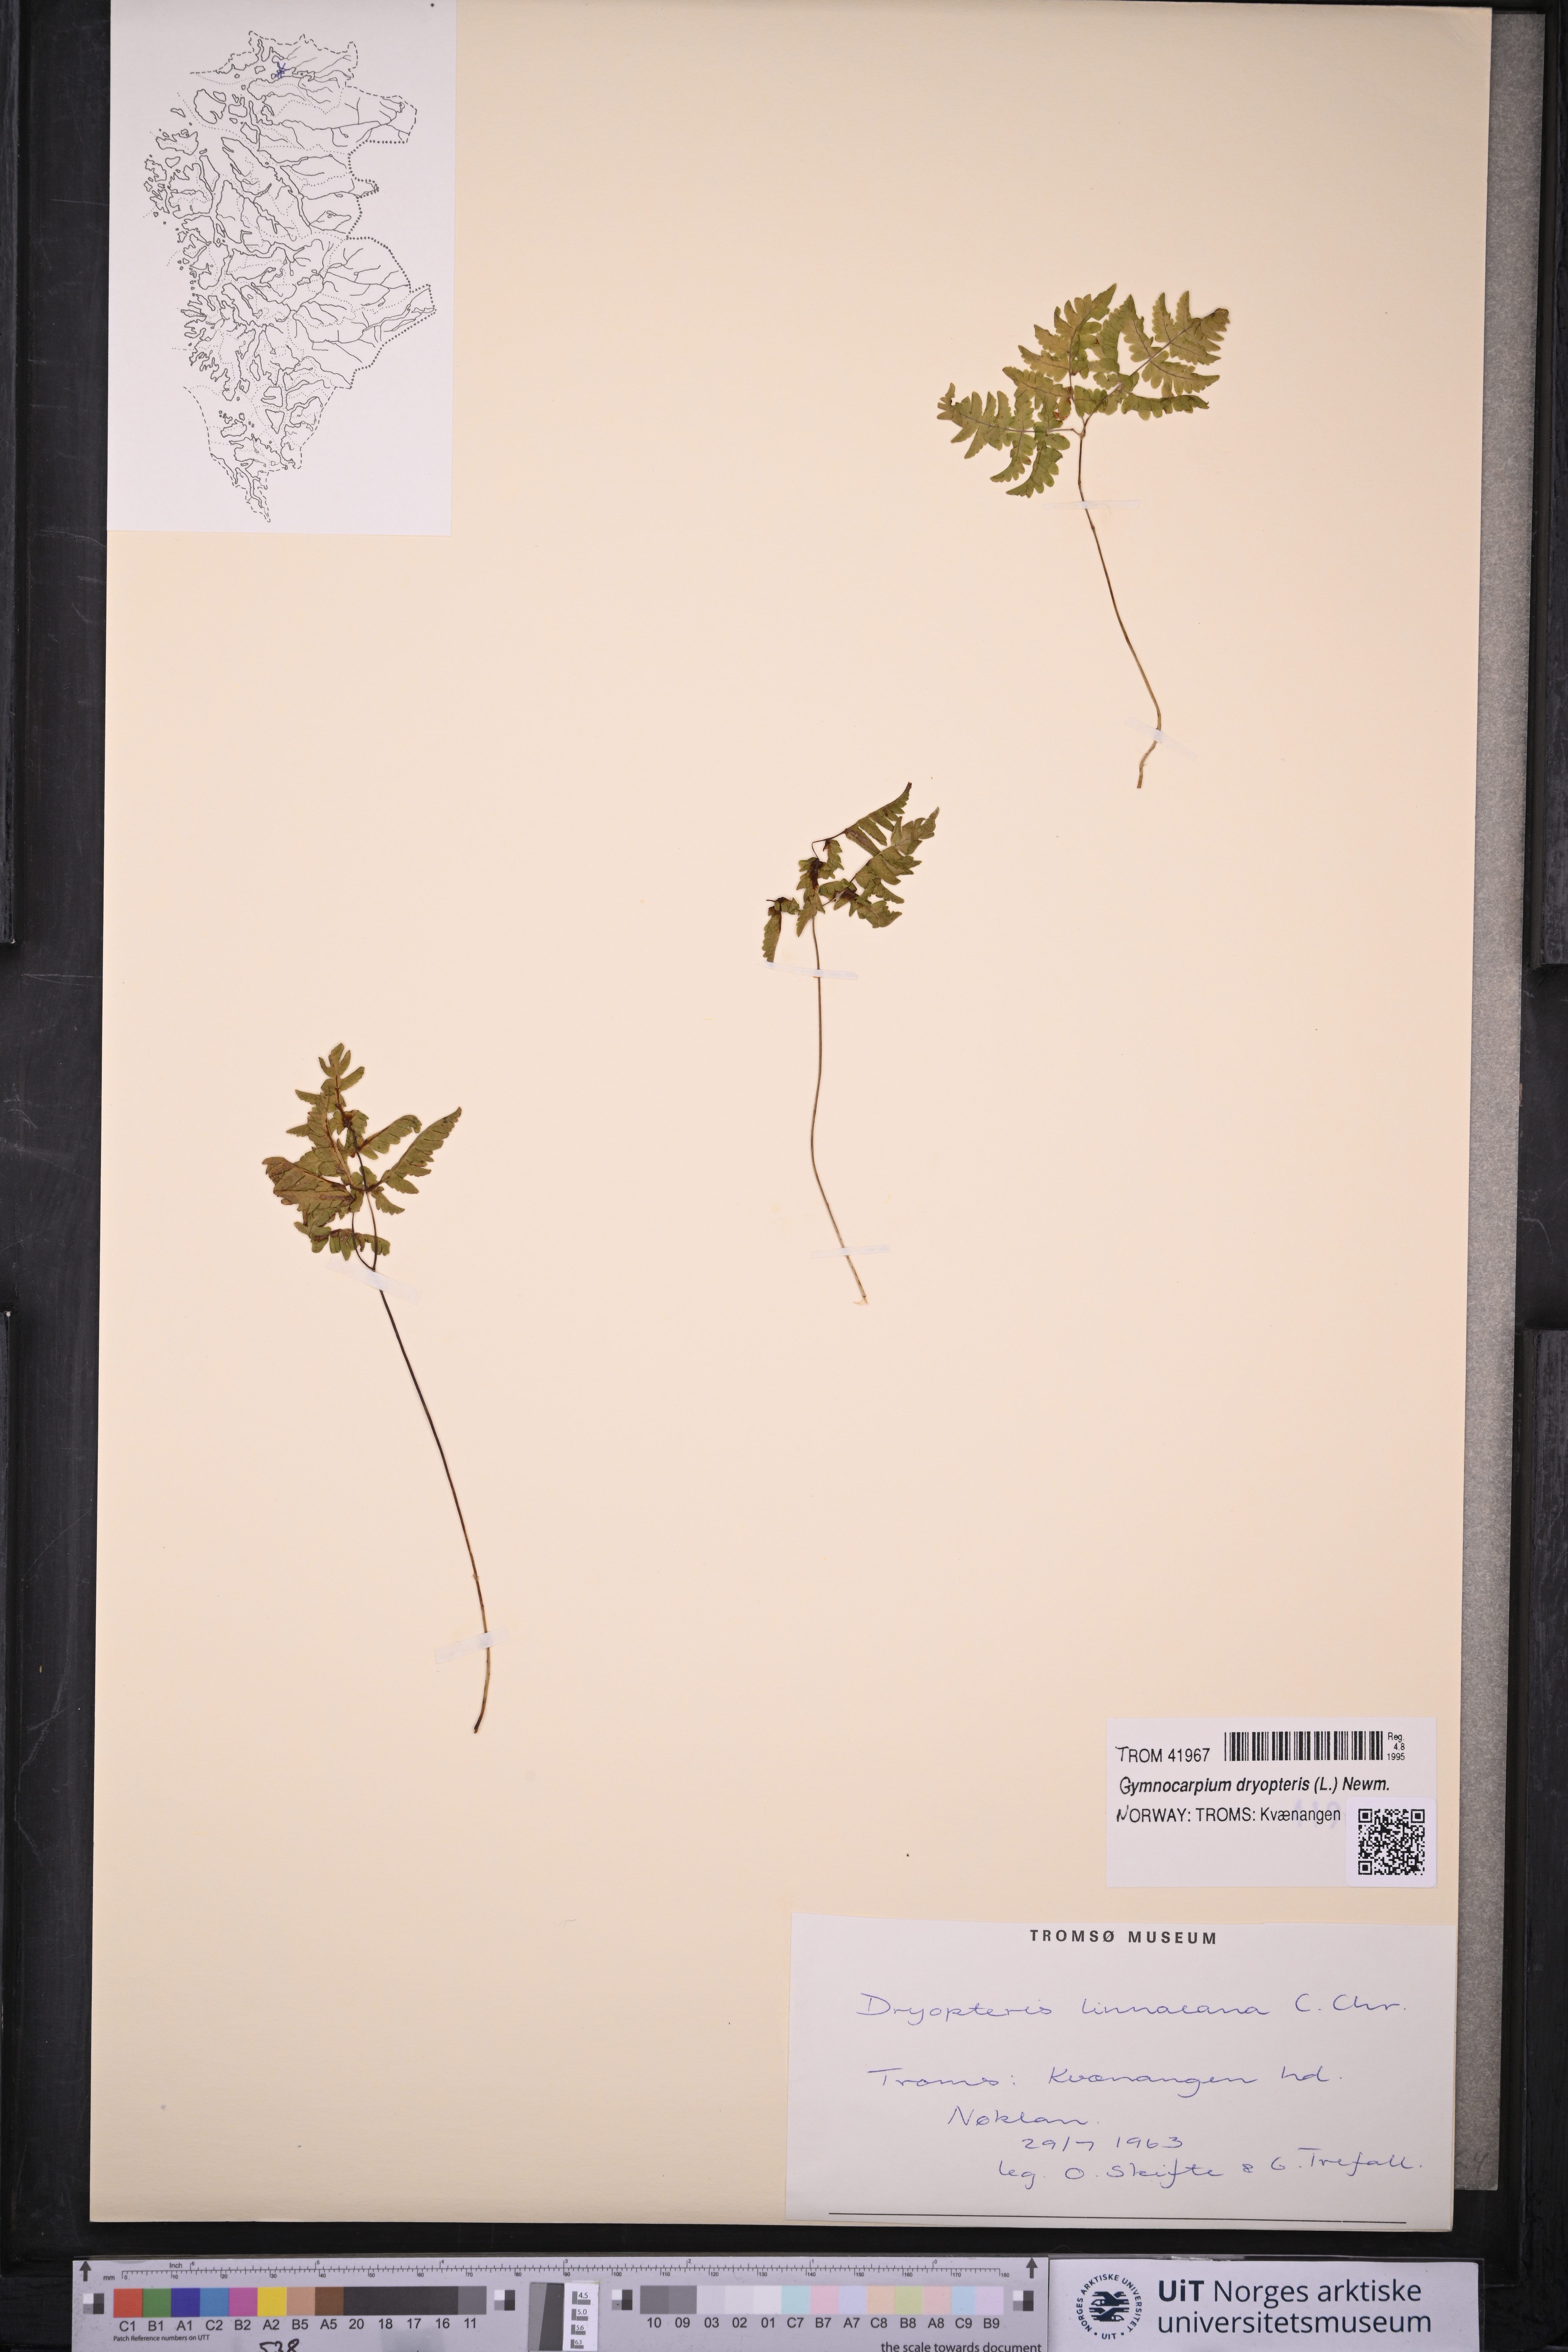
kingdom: Plantae
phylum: Tracheophyta
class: Polypodiopsida
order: Polypodiales
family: Cystopteridaceae
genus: Gymnocarpium
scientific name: Gymnocarpium dryopteris
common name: Oak fern
